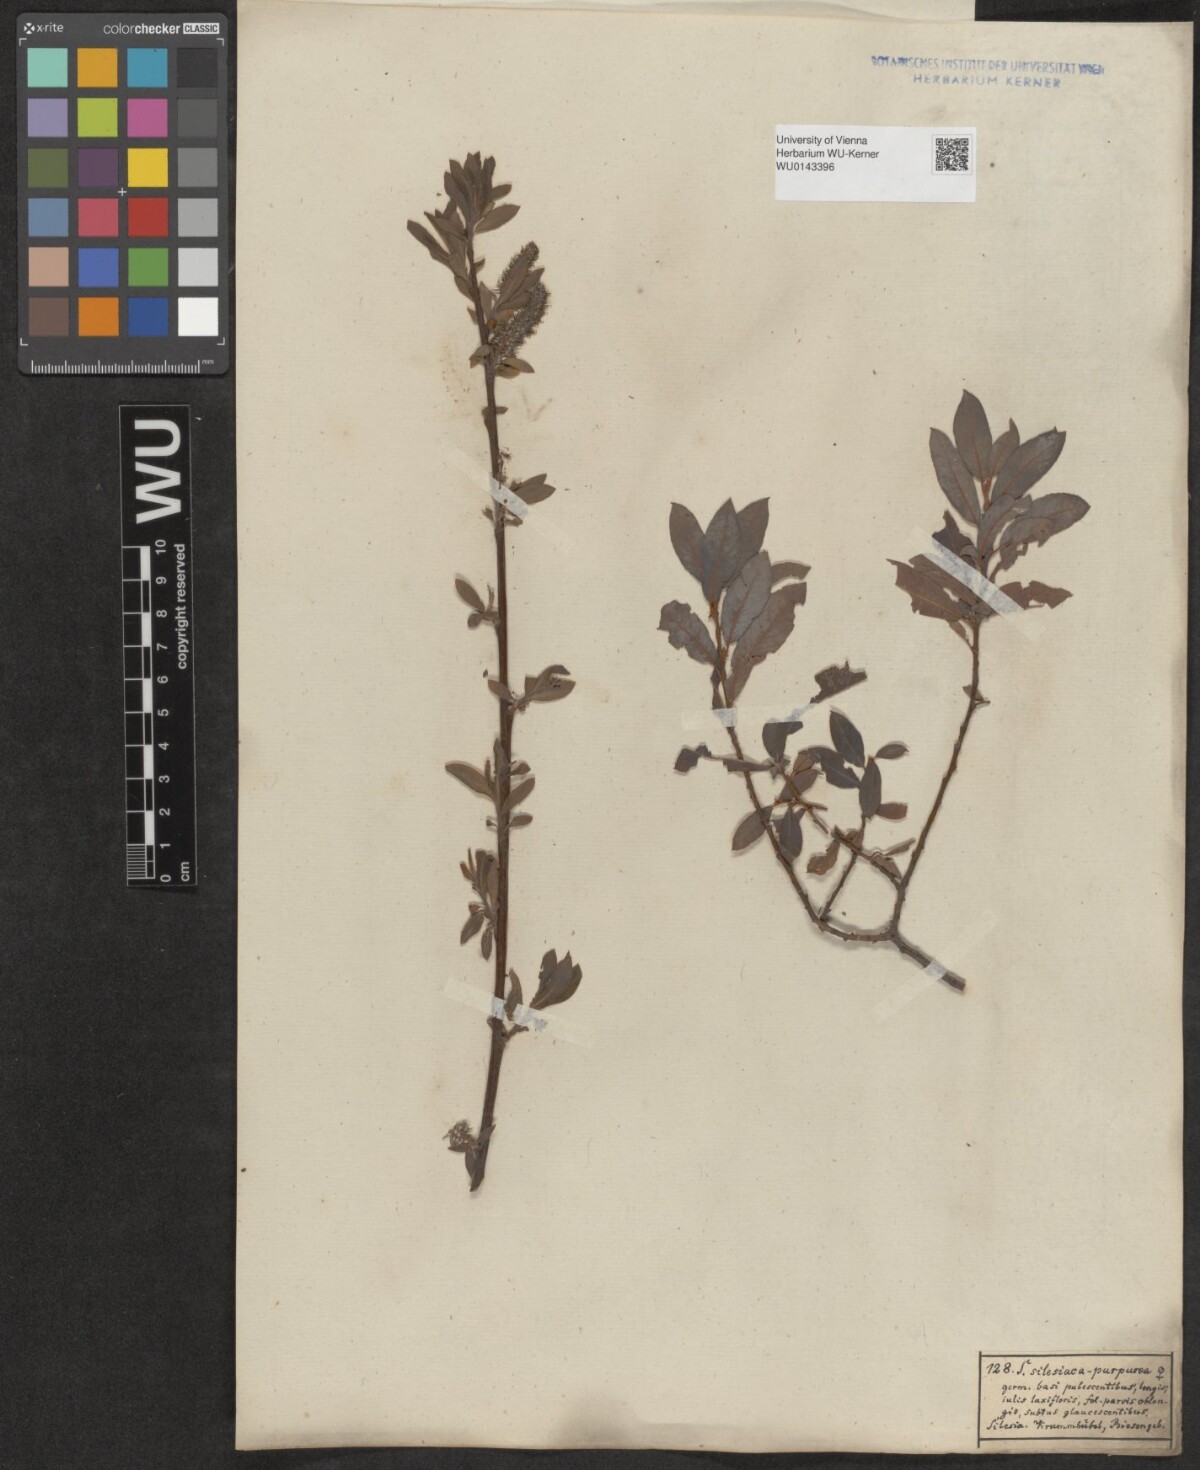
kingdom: Plantae
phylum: Tracheophyta
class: Magnoliopsida
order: Malpighiales
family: Salicaceae
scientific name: Salicaceae
